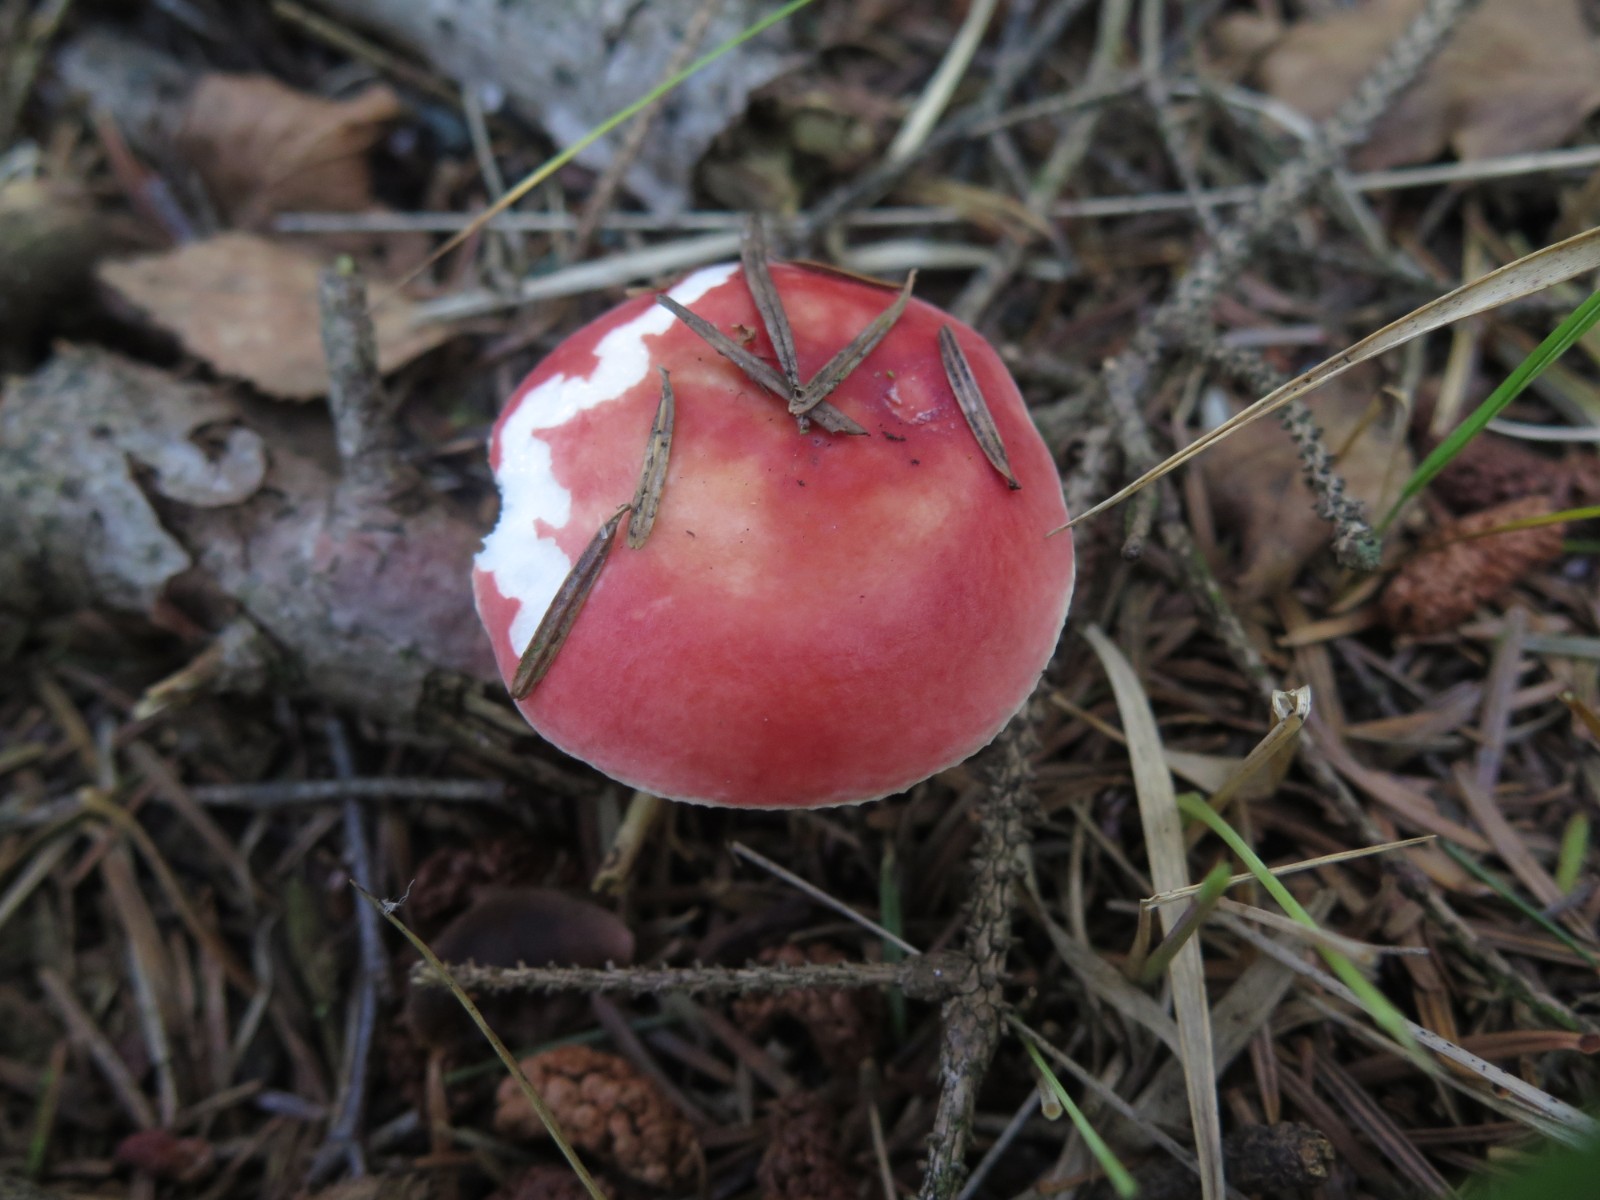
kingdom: Fungi
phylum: Basidiomycota
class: Agaricomycetes
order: Russulales
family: Russulaceae
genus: Russula
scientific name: Russula emetica
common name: stor gift-skørhat
